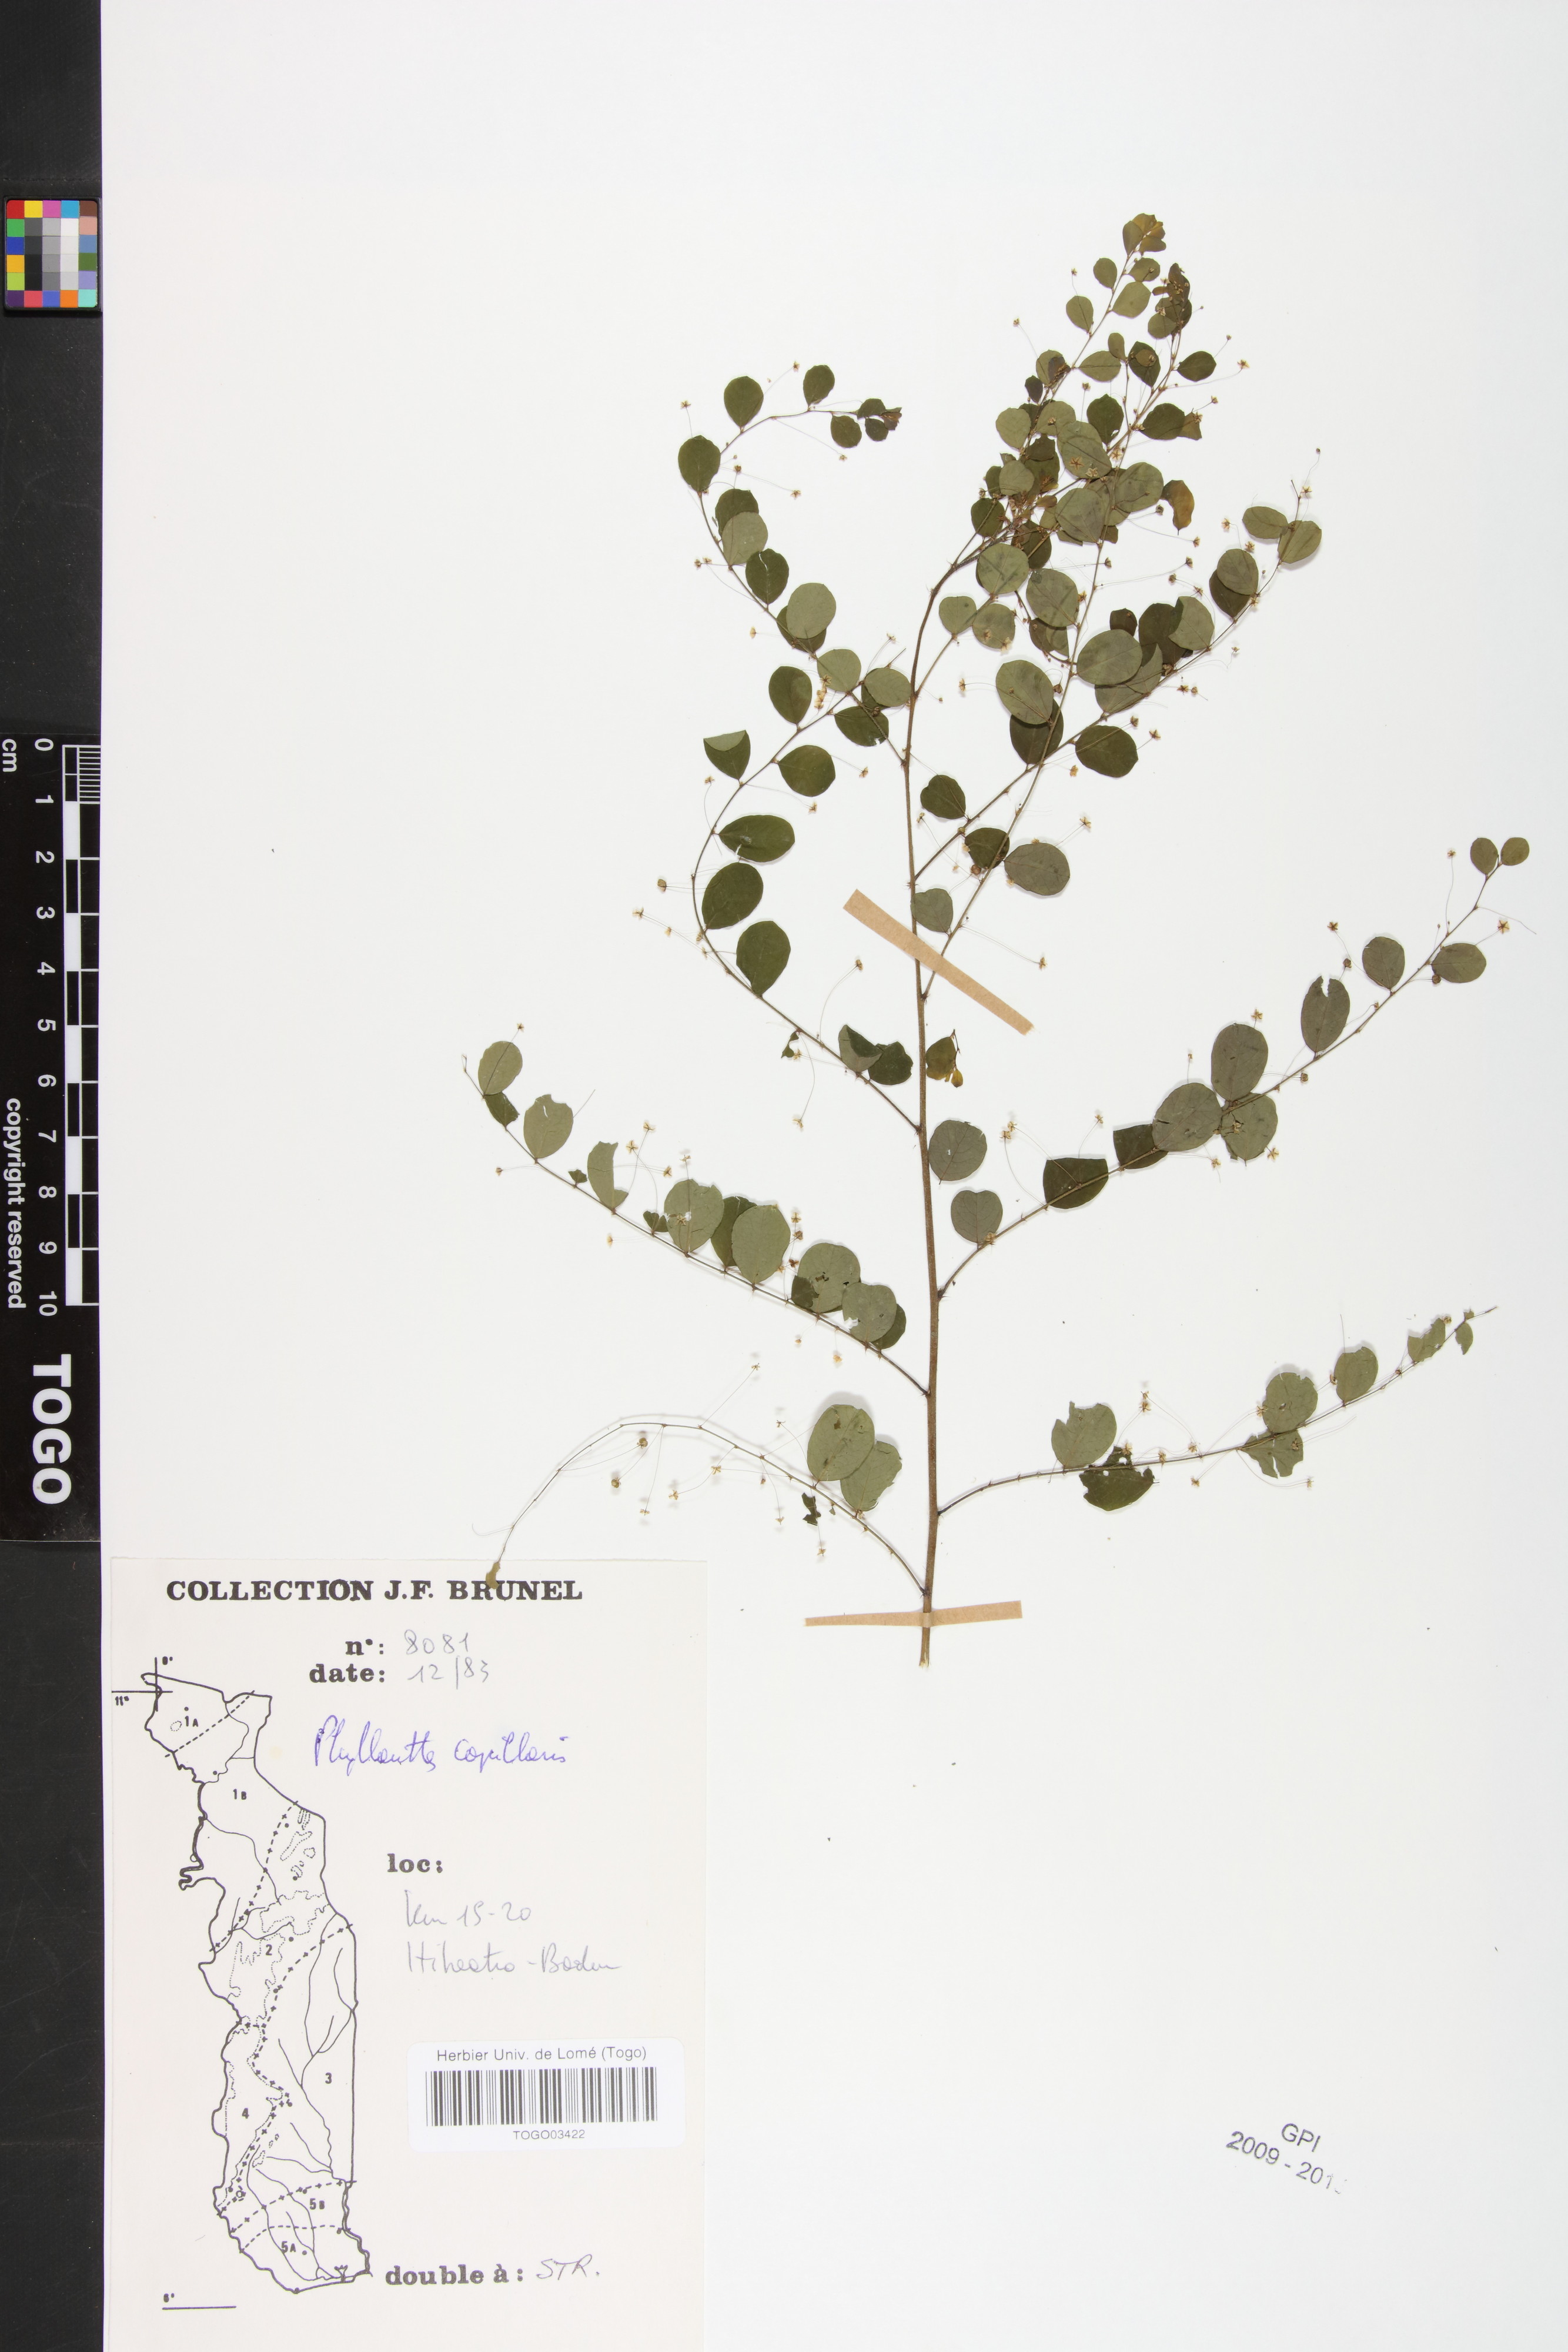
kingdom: Plantae
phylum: Tracheophyta
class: Magnoliopsida
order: Malpighiales
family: Phyllanthaceae
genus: Phyllanthus
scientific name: Phyllanthus nummulariifolius
